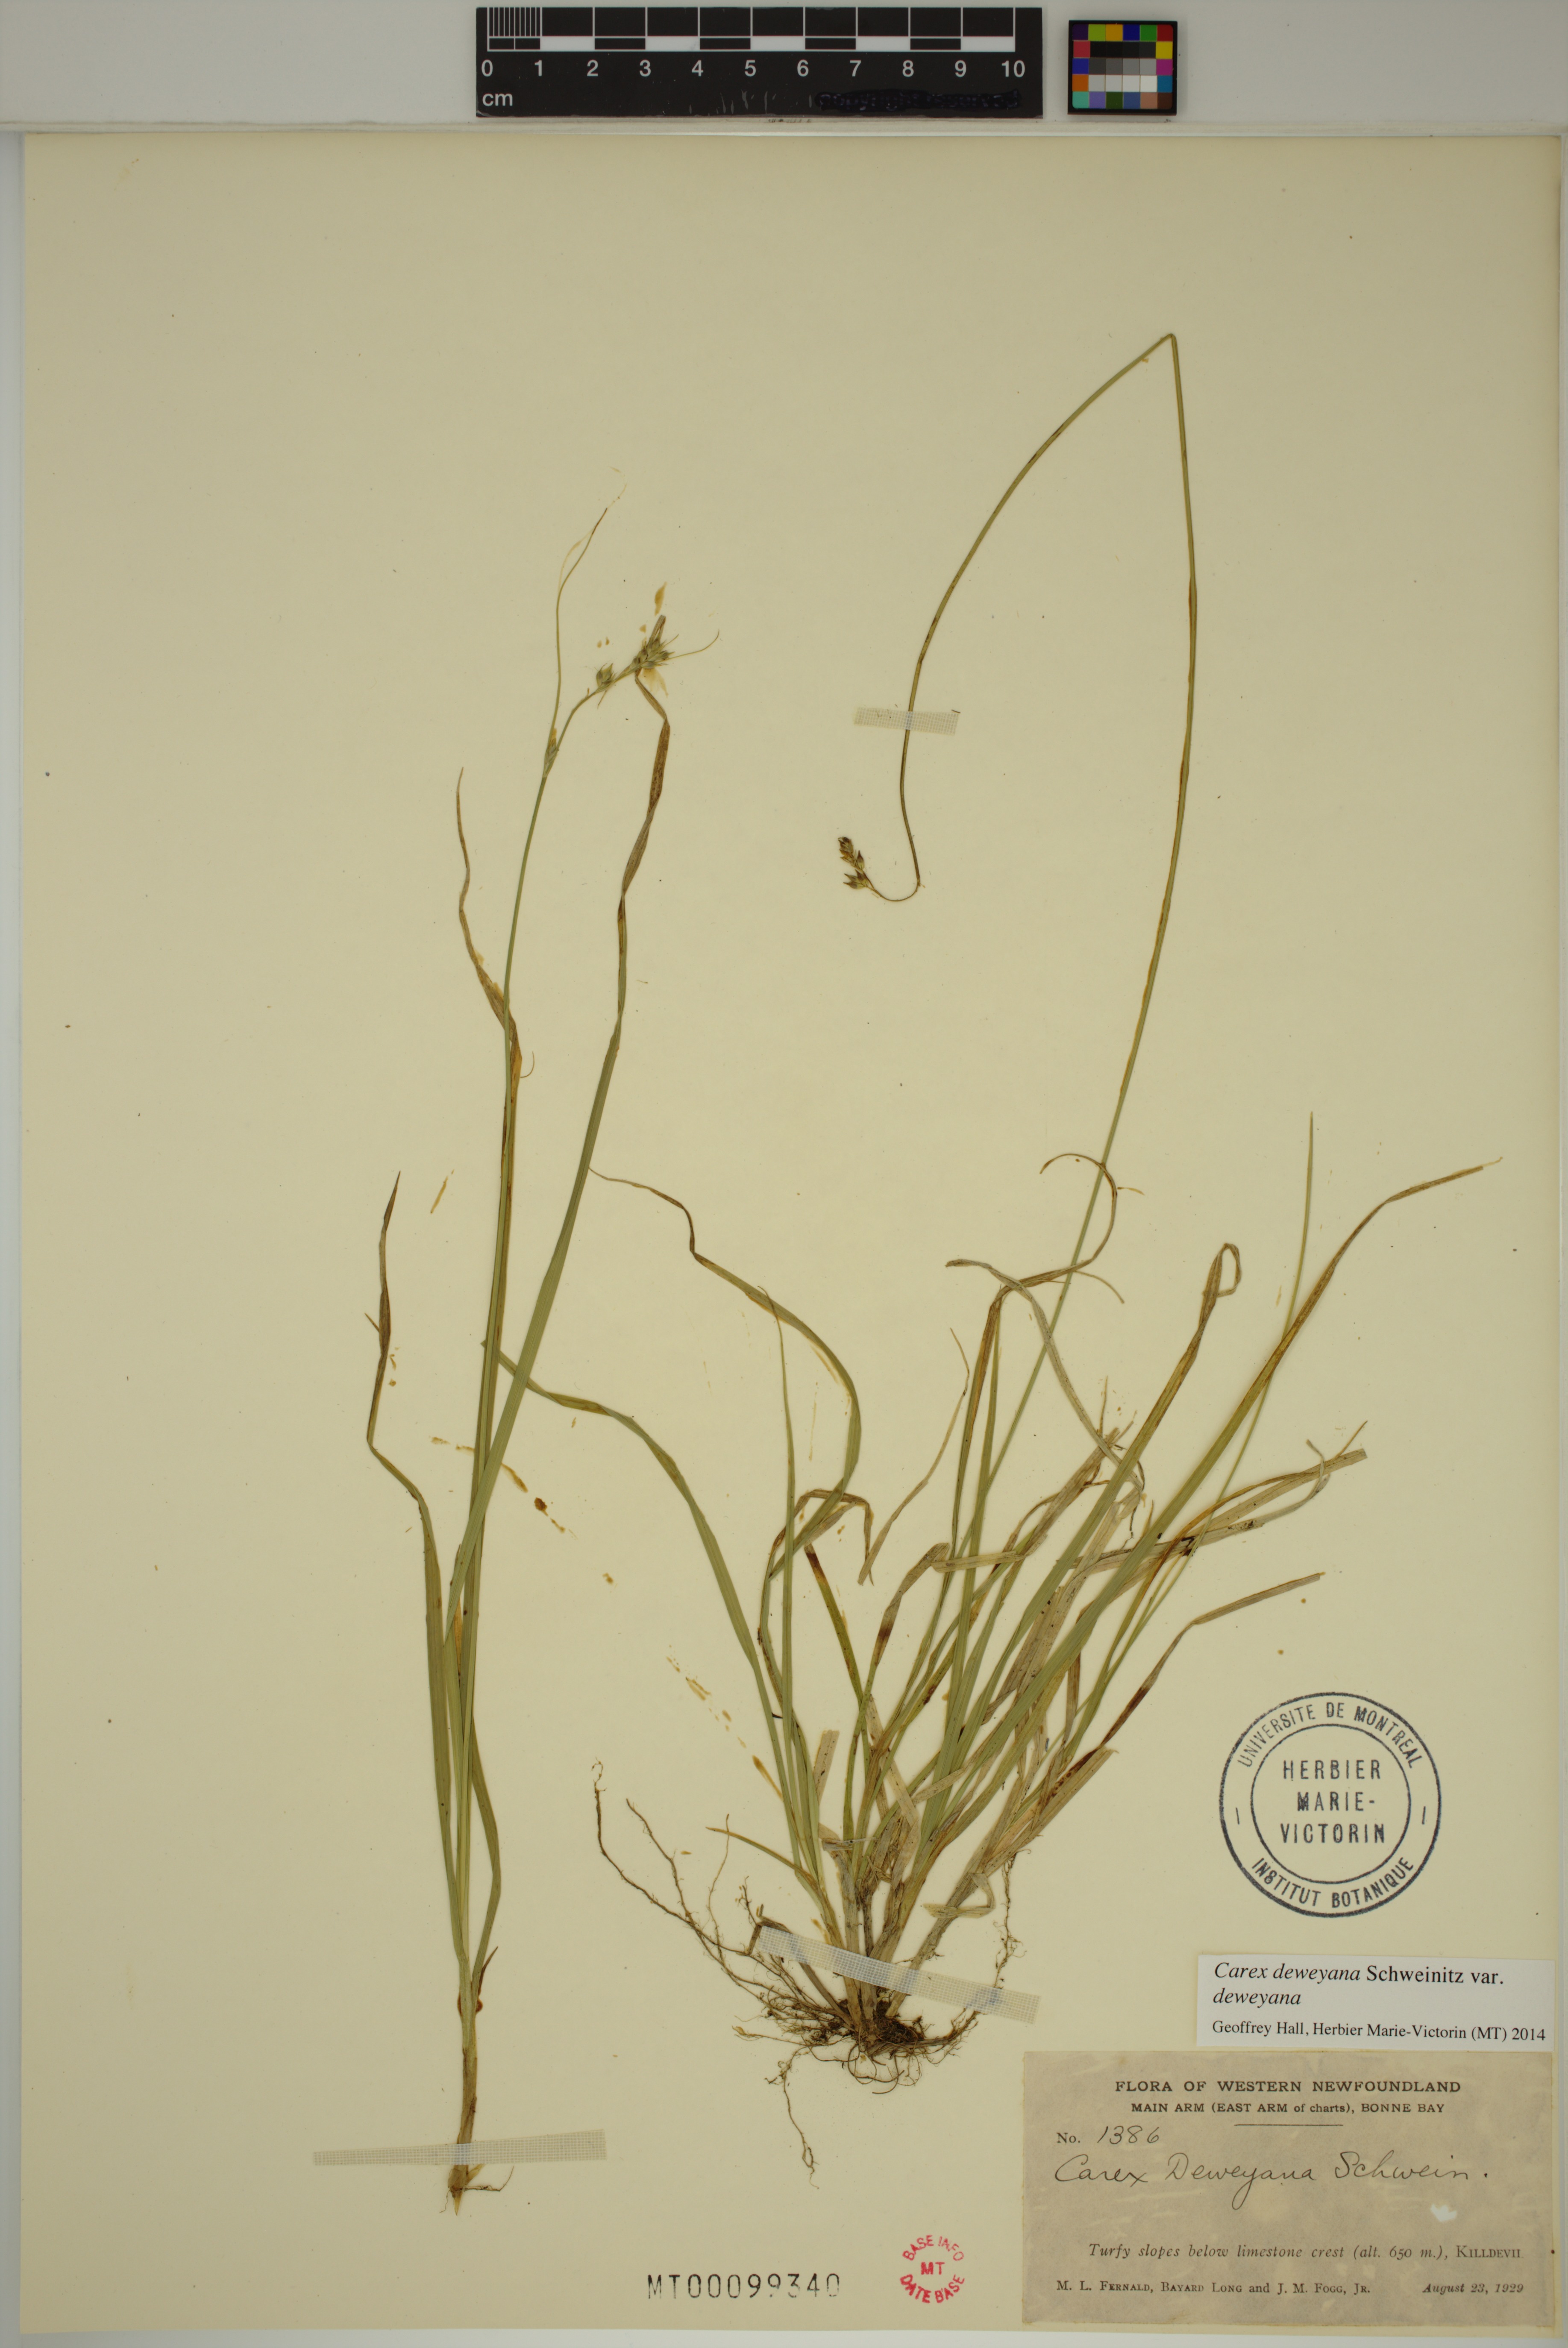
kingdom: Plantae
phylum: Tracheophyta
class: Liliopsida
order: Poales
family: Cyperaceae
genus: Carex
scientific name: Carex deweyana
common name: Dewey's sedge
